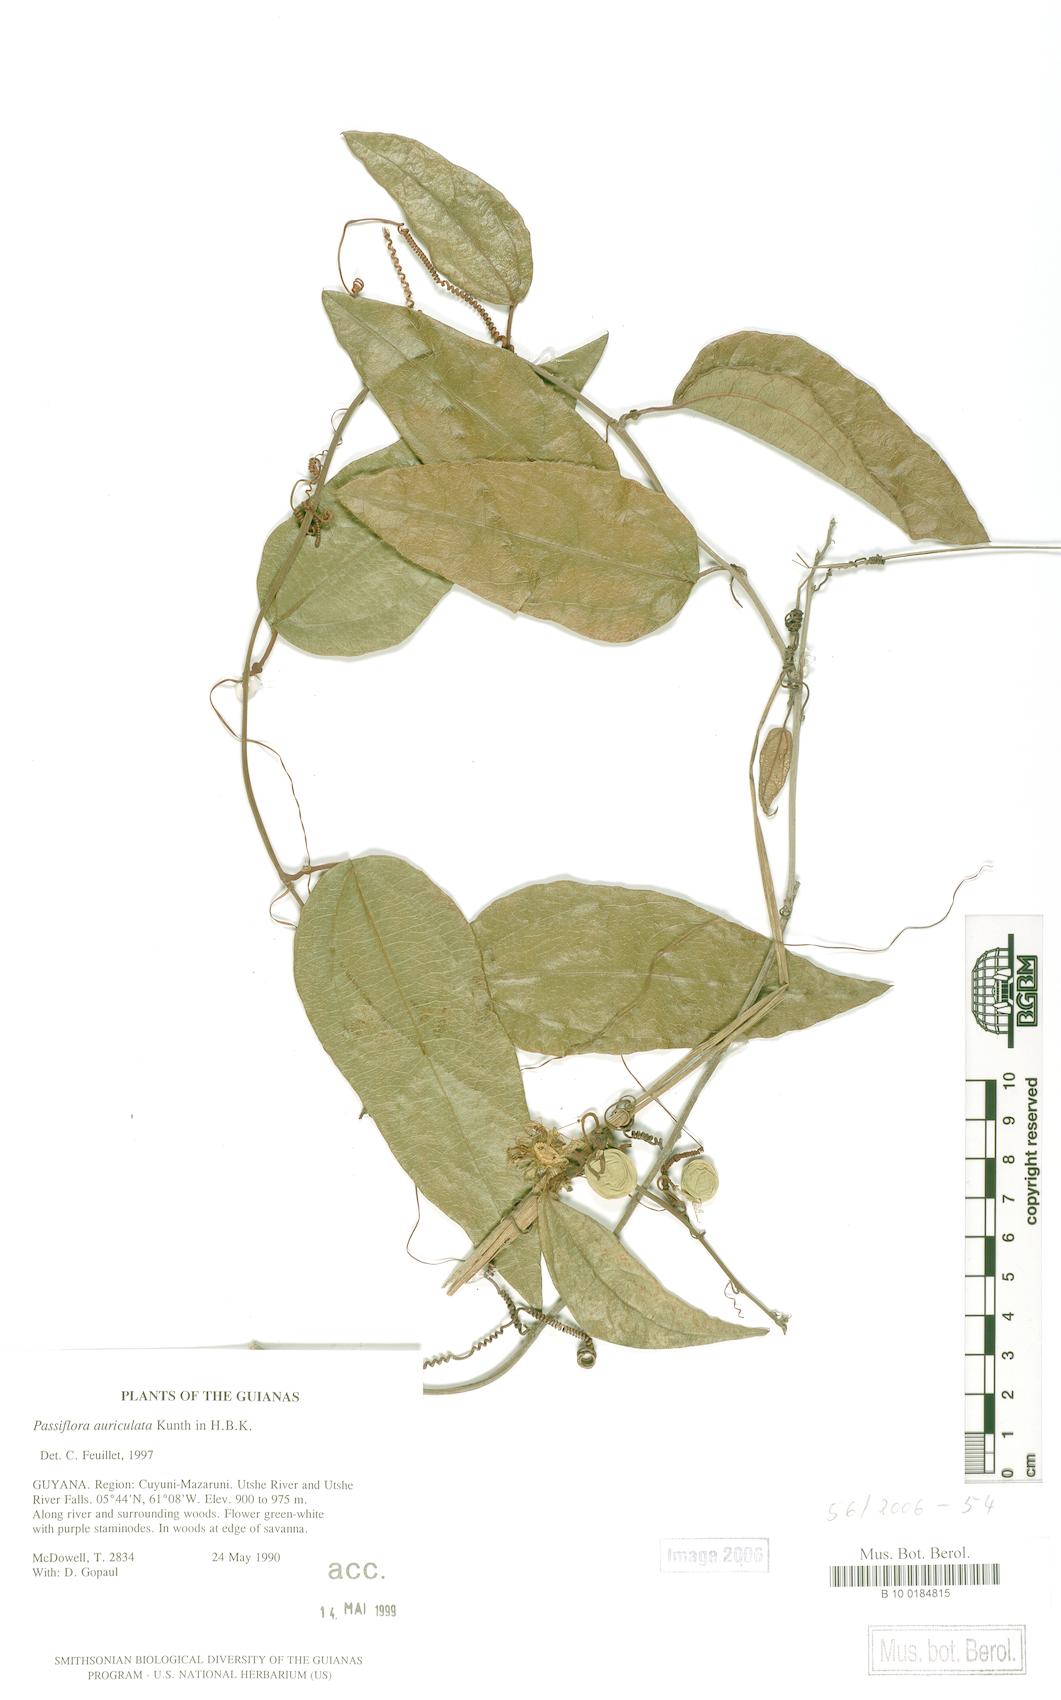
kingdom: Plantae
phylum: Tracheophyta
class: Magnoliopsida
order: Malpighiales
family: Passifloraceae
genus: Passiflora
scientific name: Passiflora auriculata
